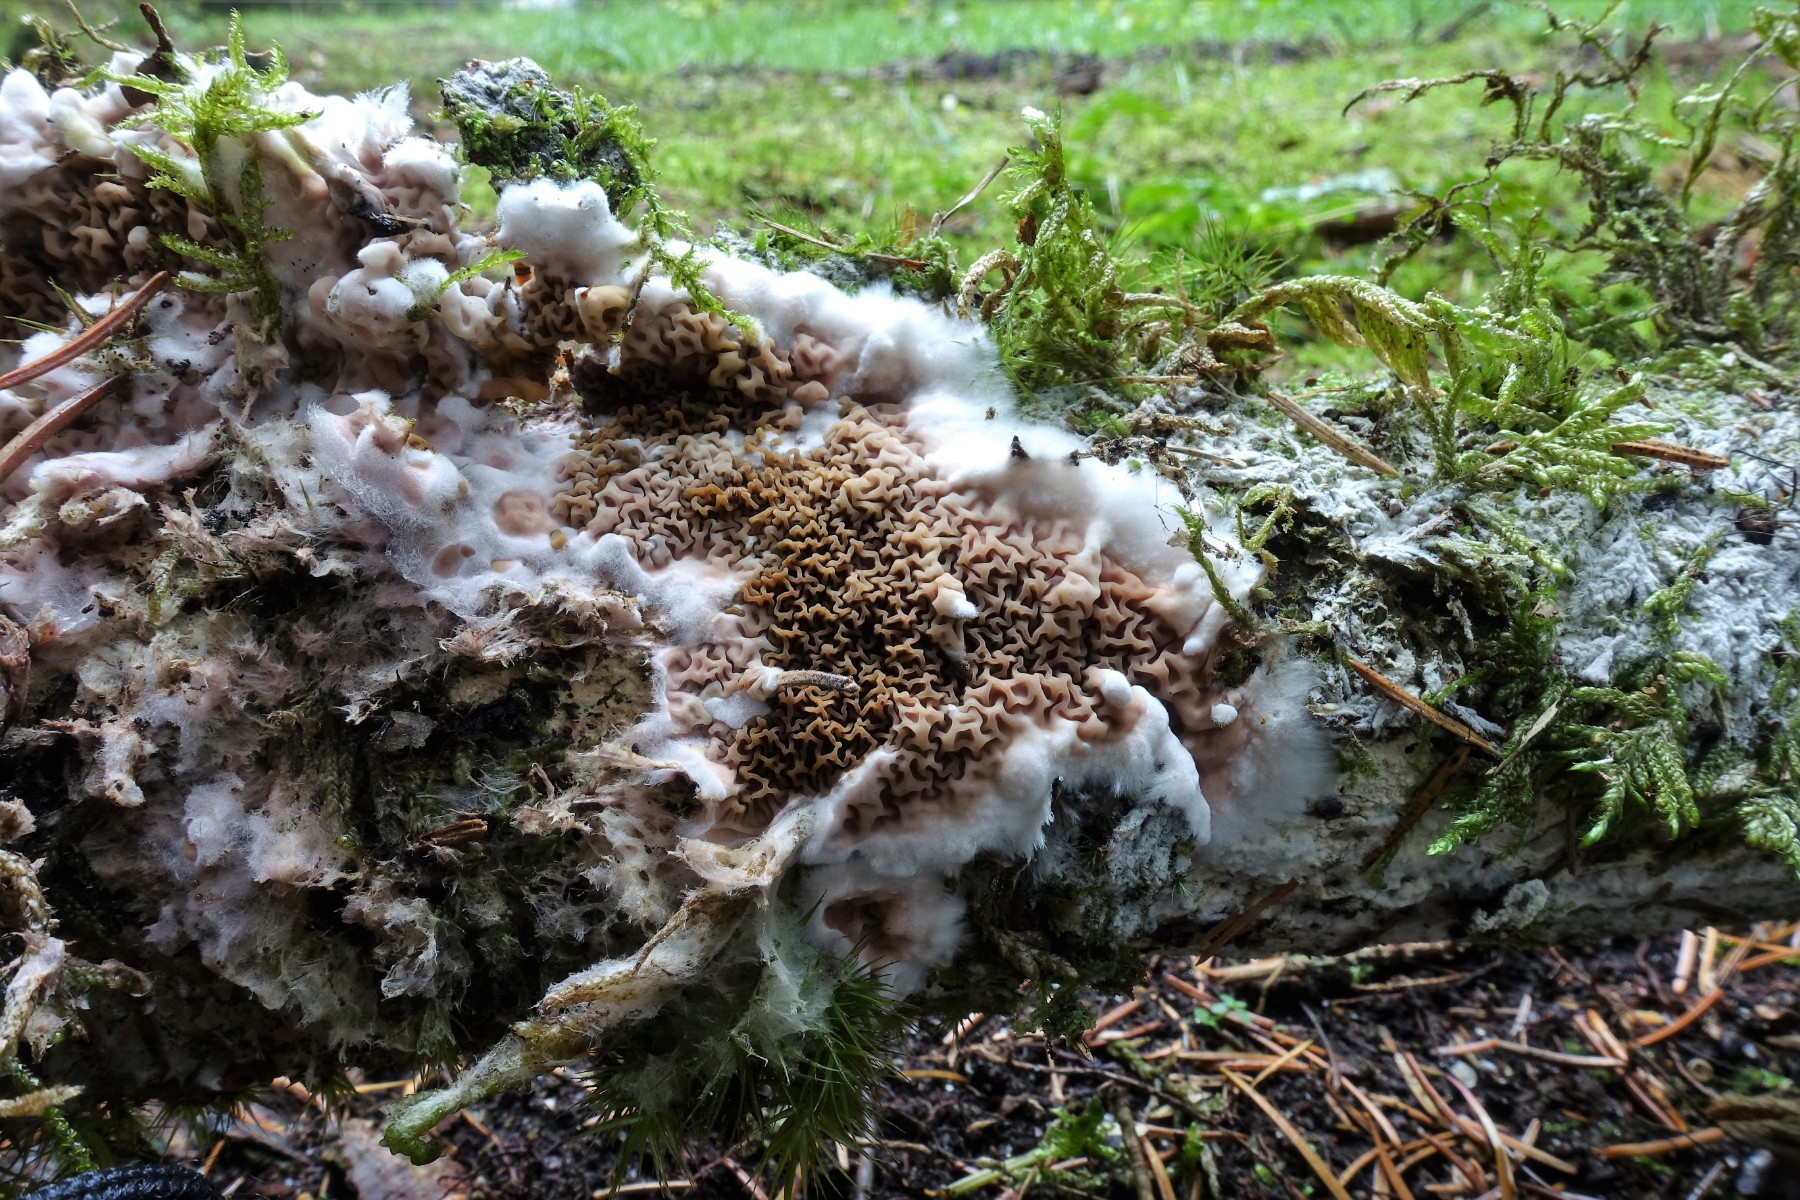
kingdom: Fungi
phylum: Basidiomycota
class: Agaricomycetes
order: Boletales
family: Serpulaceae
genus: Serpula
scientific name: Serpula himantioides
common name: tyndkødet hussvamp
